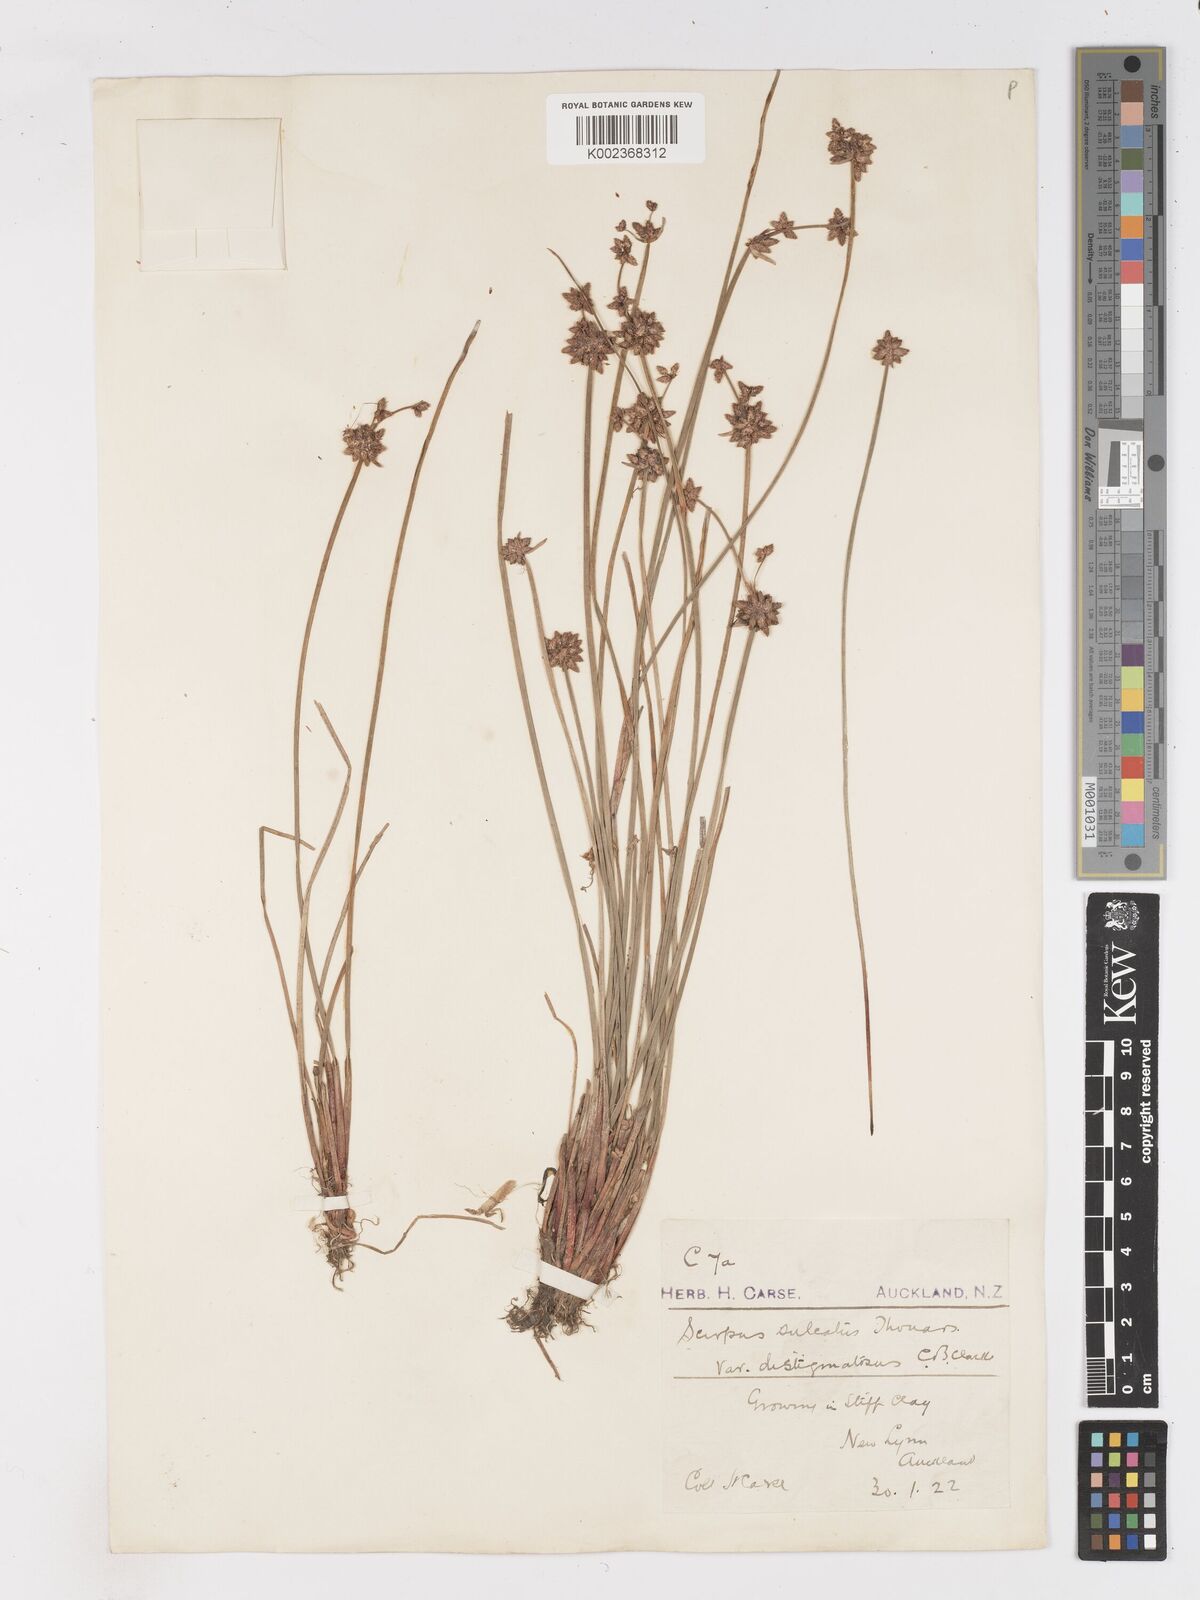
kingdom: Plantae
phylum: Tracheophyta
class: Liliopsida
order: Poales
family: Cyperaceae
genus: Isolepis
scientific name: Isolepis sulcata
